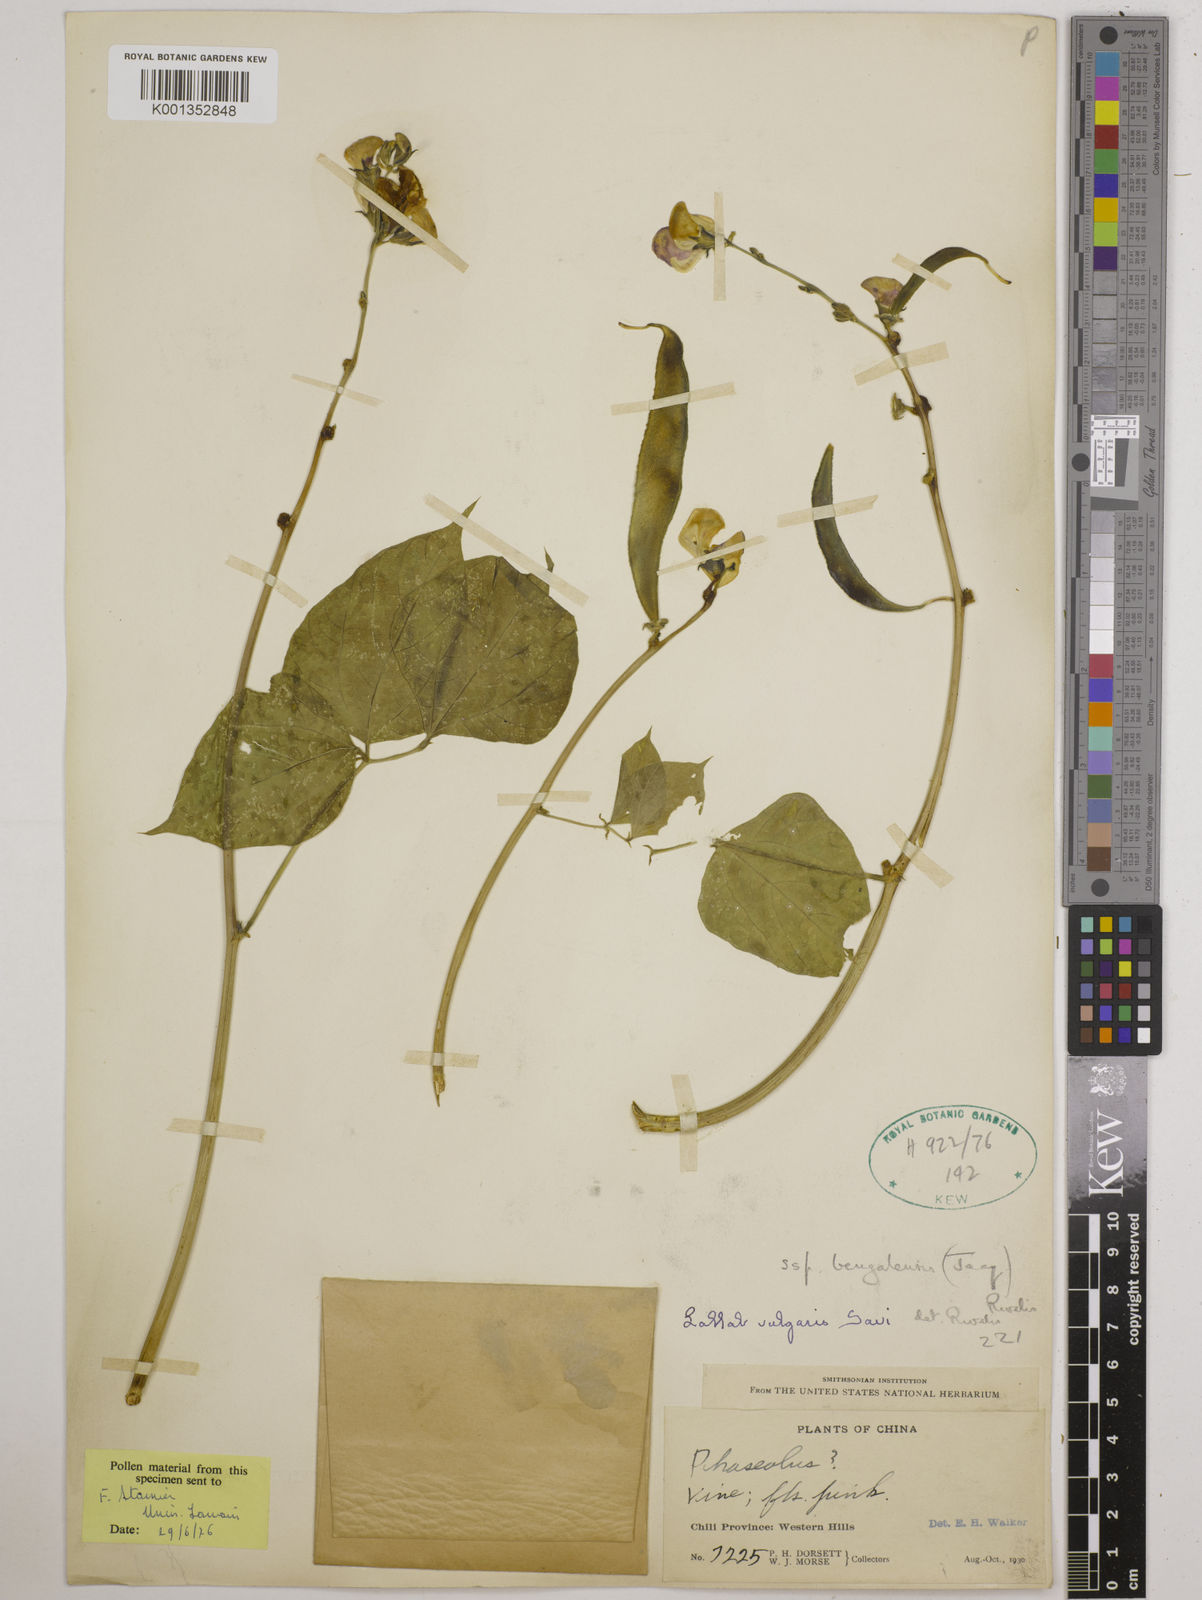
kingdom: Plantae
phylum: Tracheophyta
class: Magnoliopsida
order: Fabales
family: Fabaceae
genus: Lablab
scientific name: Lablab purpureus
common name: Lablab-bean
